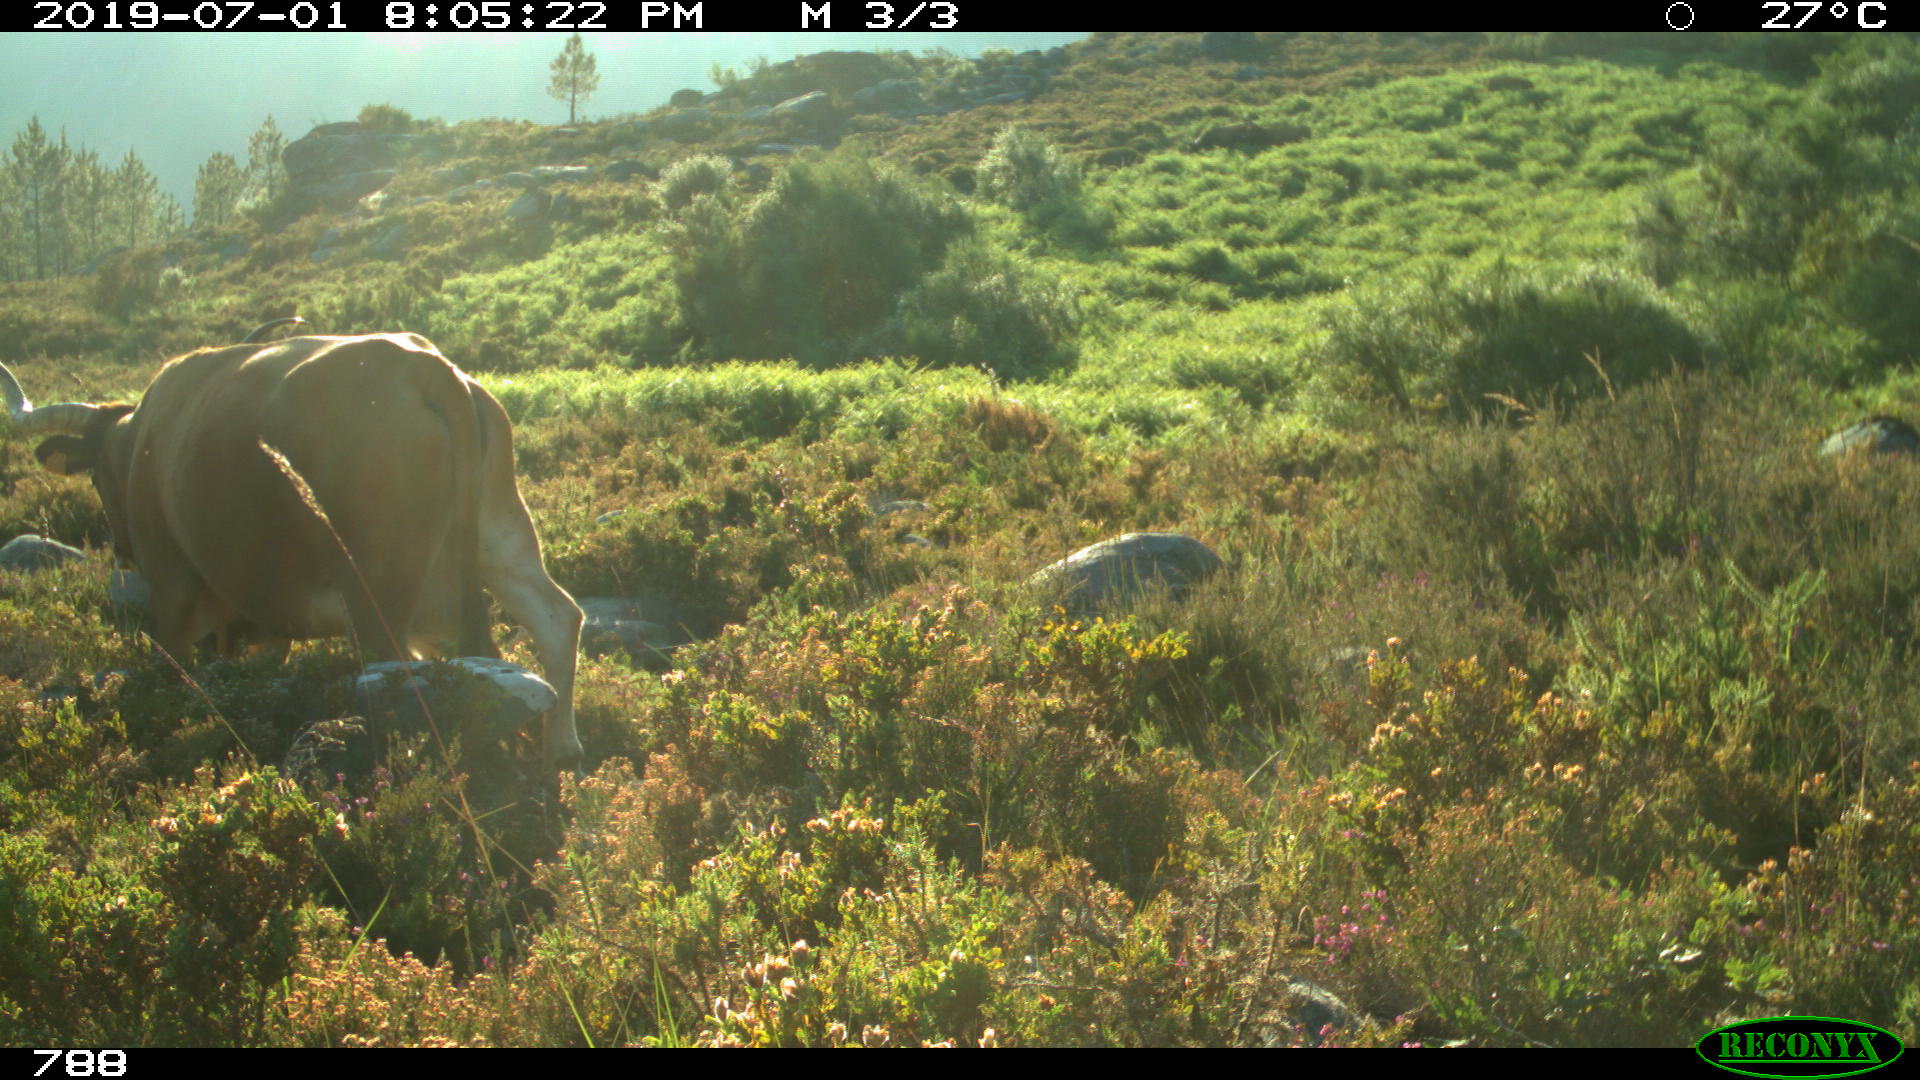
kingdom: Animalia
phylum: Chordata
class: Mammalia
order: Artiodactyla
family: Bovidae
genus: Bos
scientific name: Bos taurus
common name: Domesticated cattle
